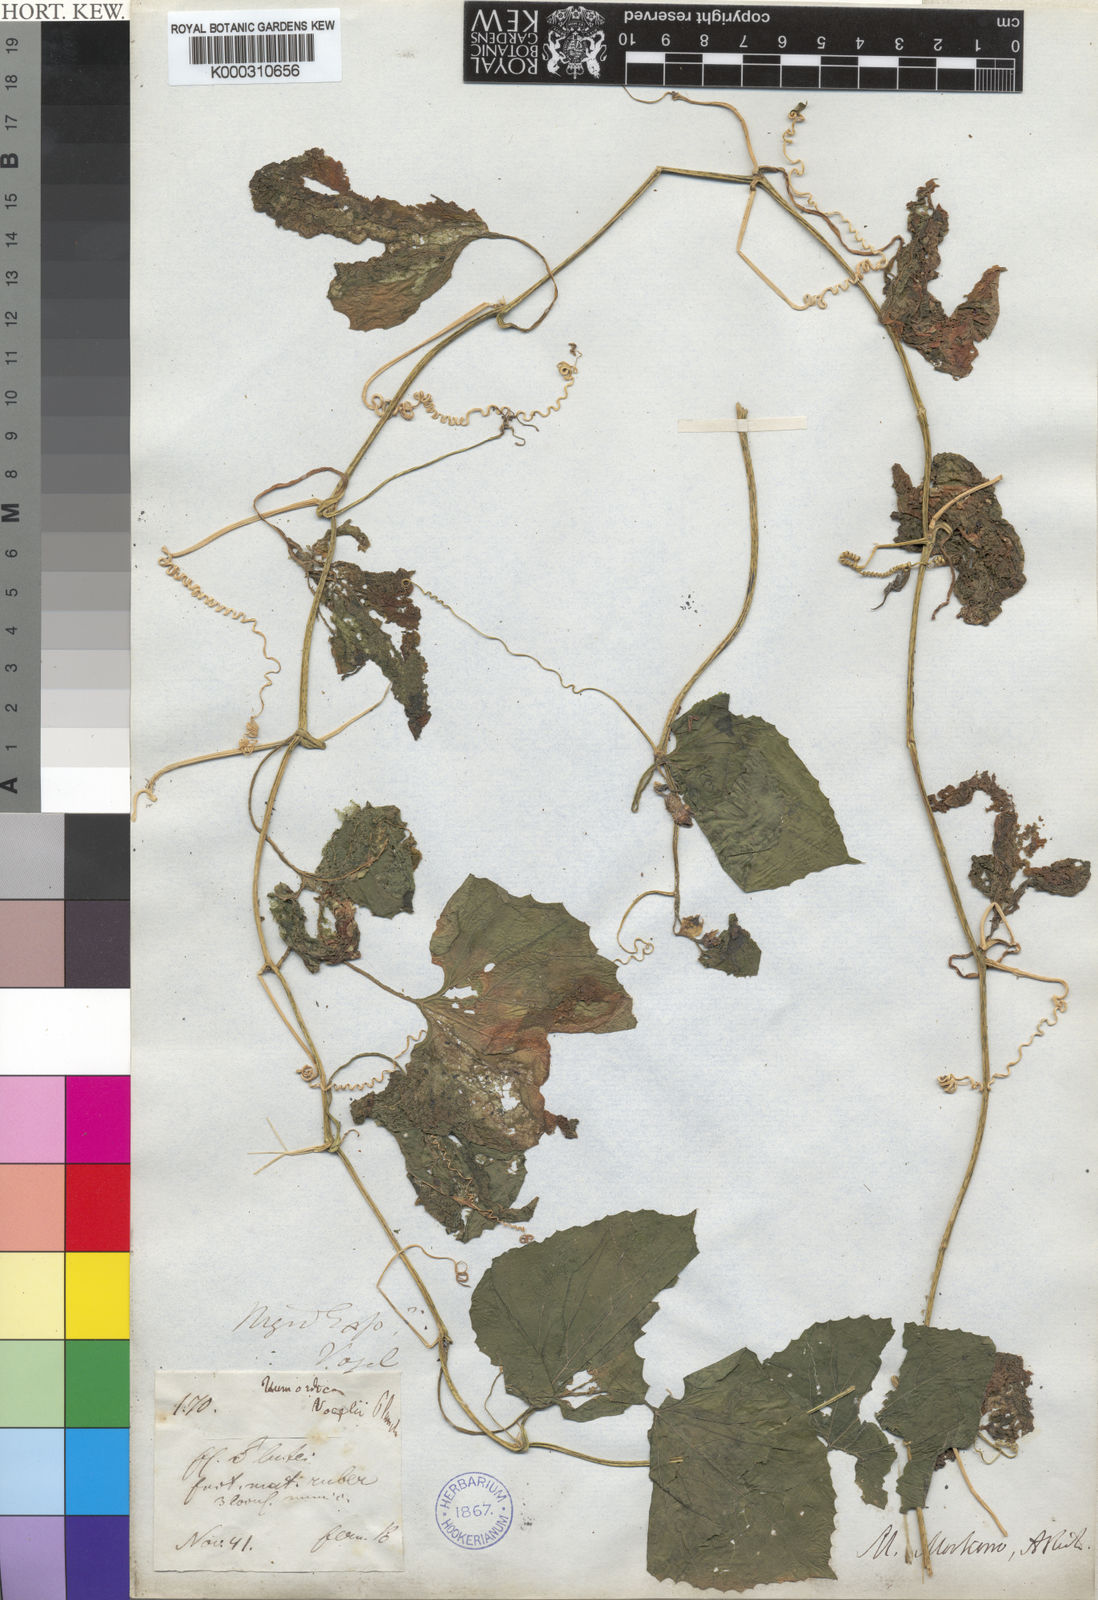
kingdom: Plantae
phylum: Tracheophyta
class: Magnoliopsida
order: Cucurbitales
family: Cucurbitaceae
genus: Momordica
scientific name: Momordica foetida
